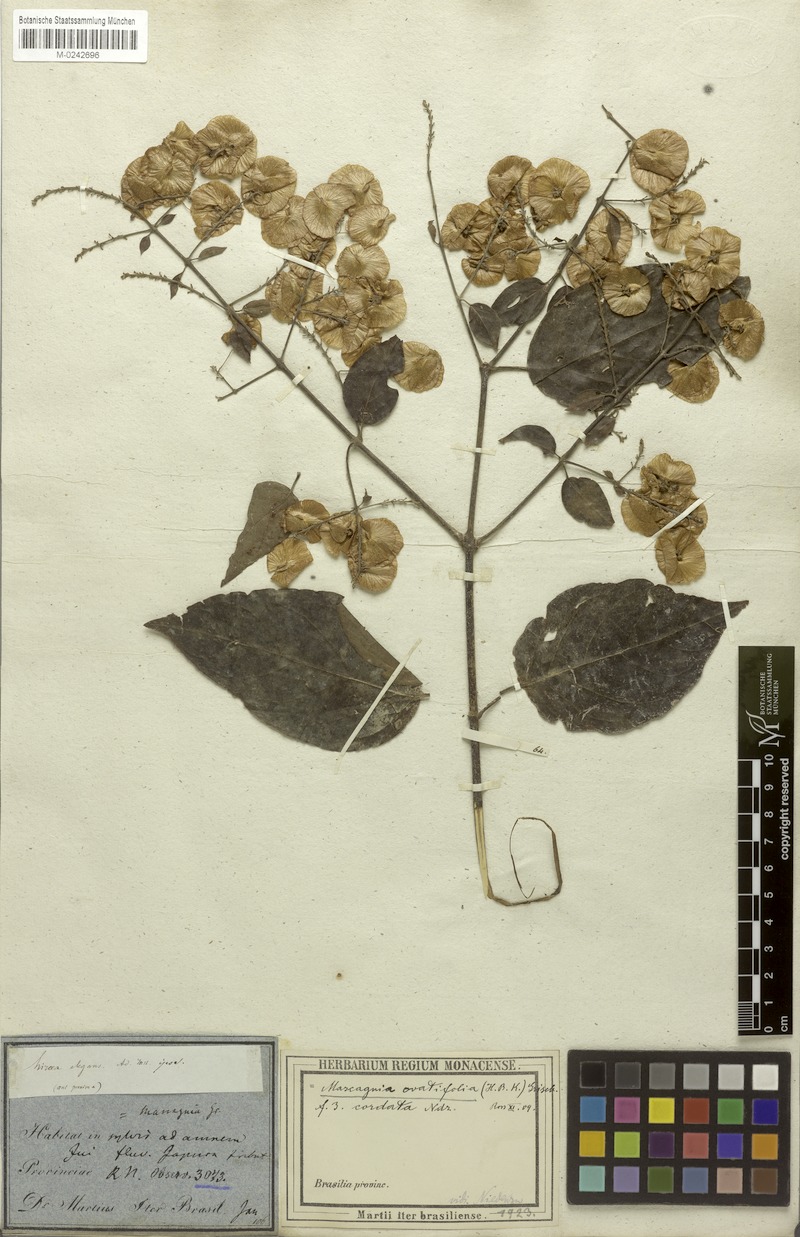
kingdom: Plantae
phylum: Tracheophyta
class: Magnoliopsida
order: Malpighiales
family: Malpighiaceae
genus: Mascagnia
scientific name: Mascagnia divaricata
